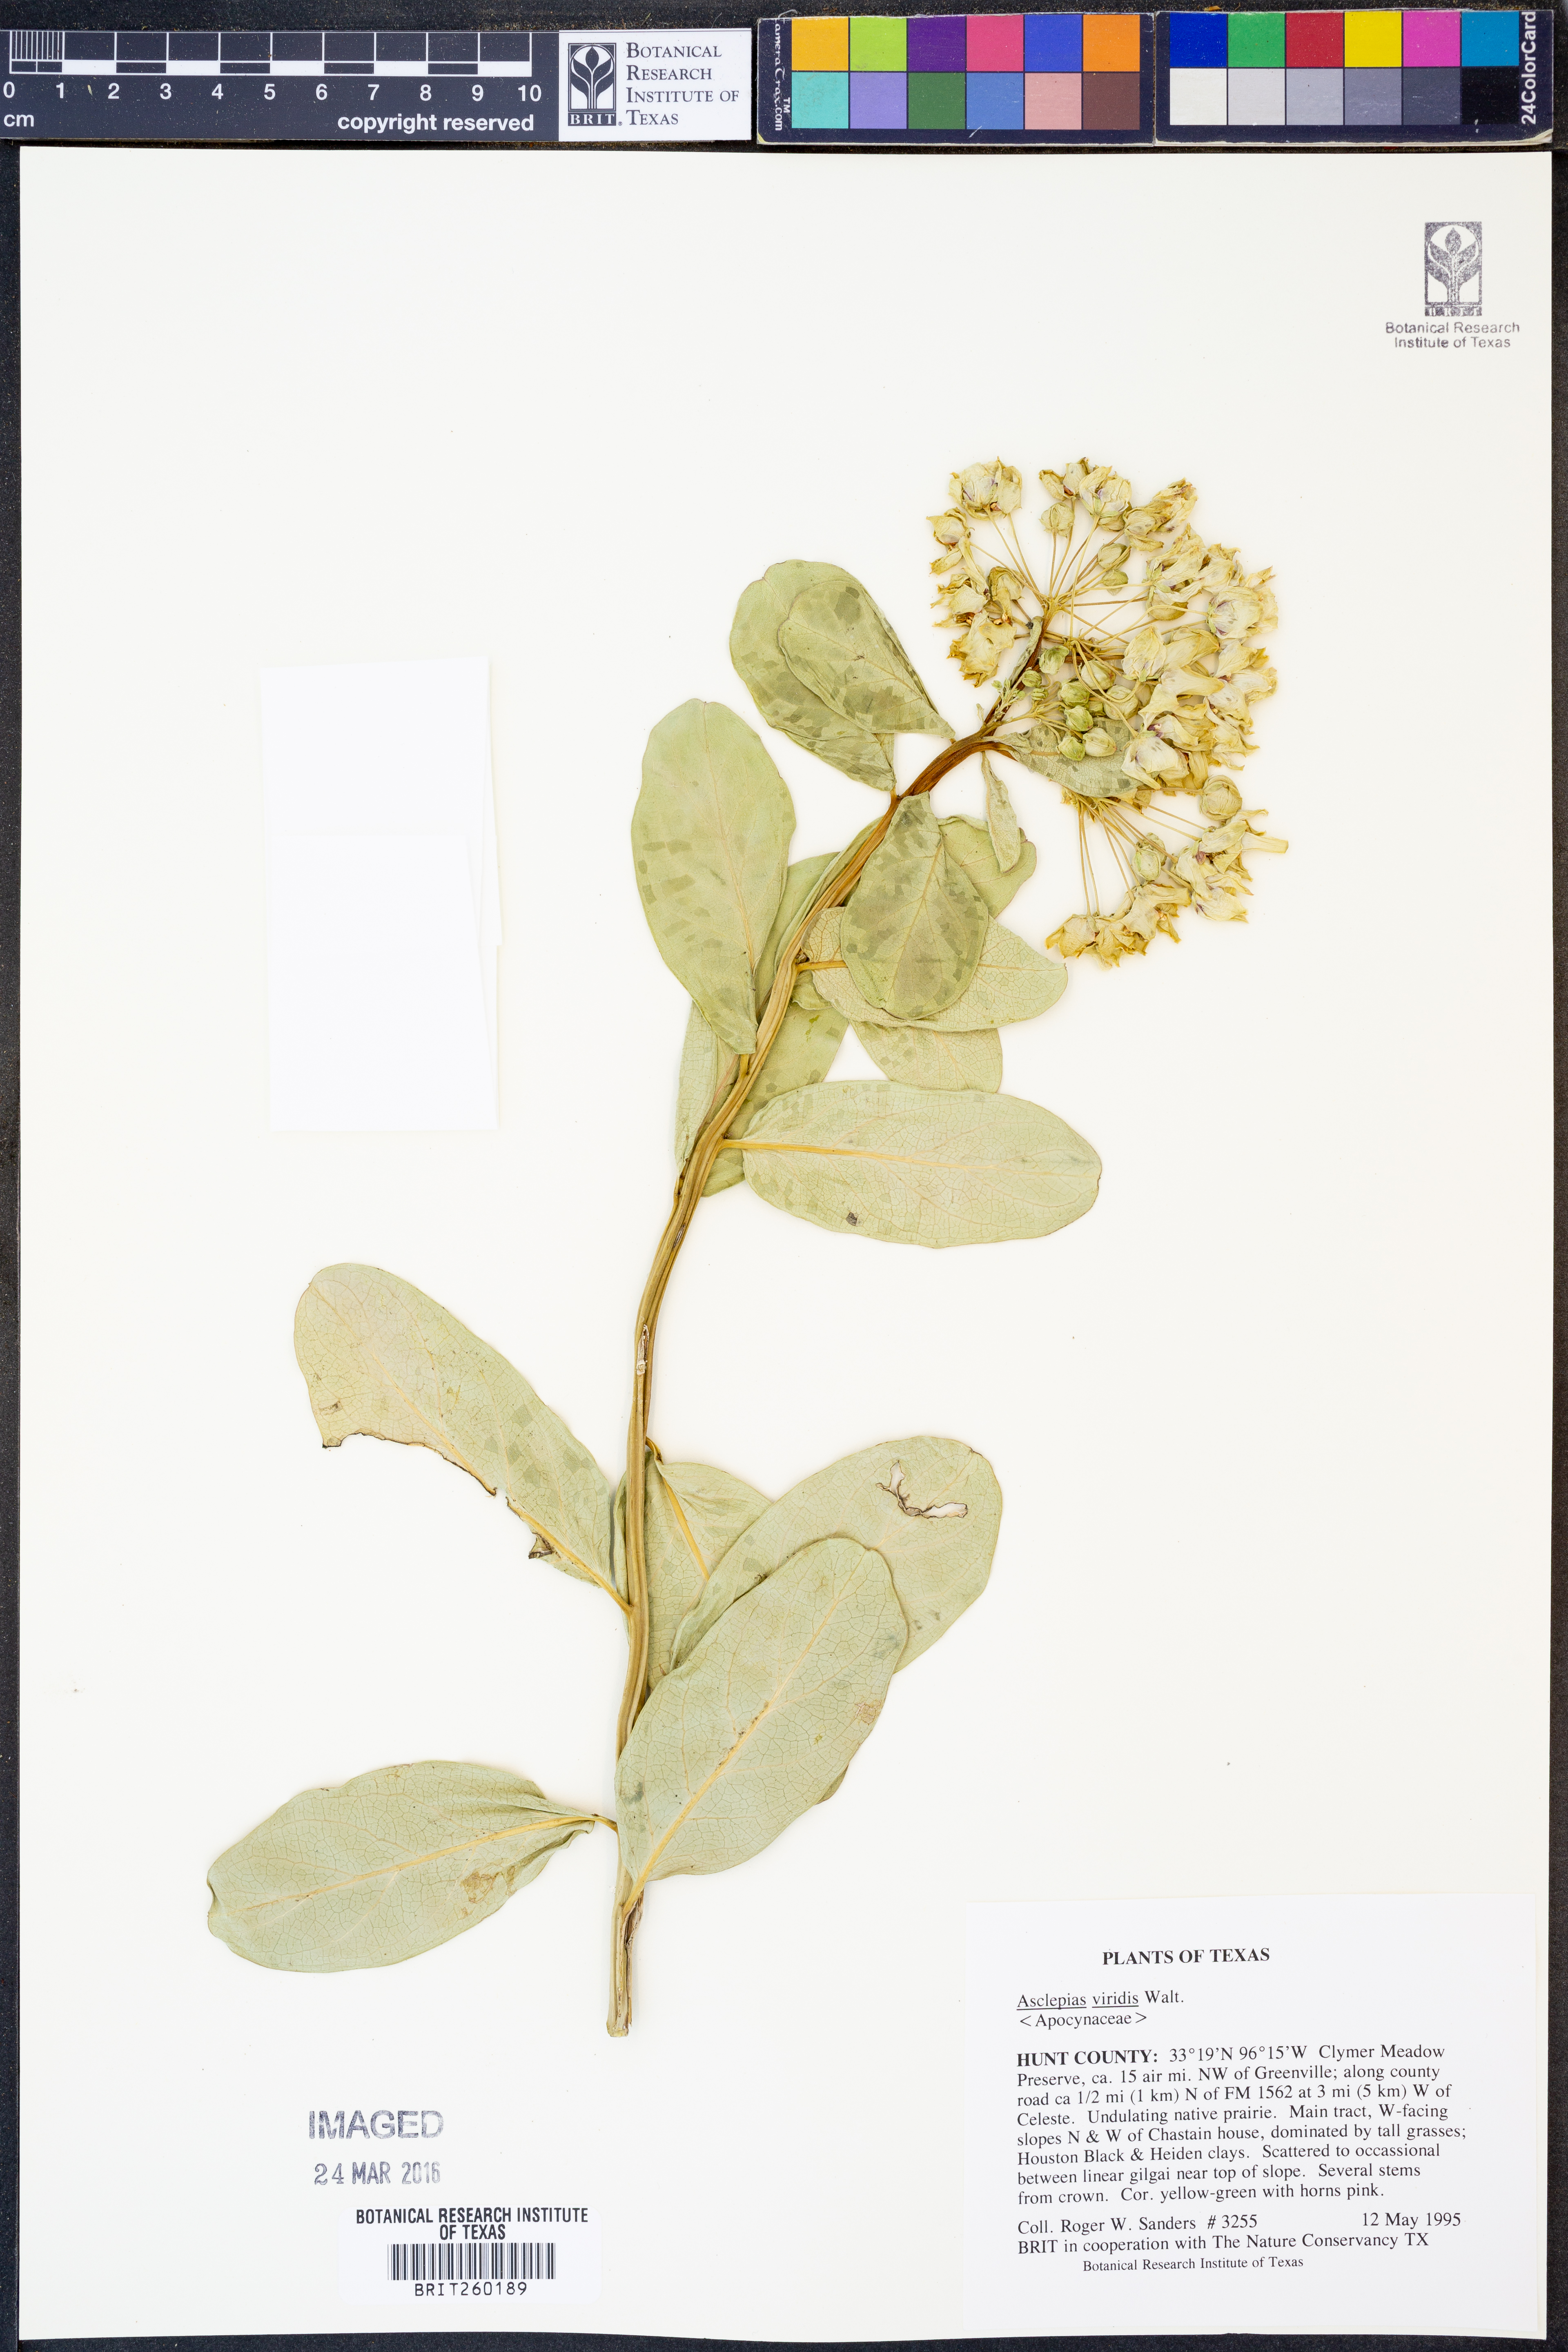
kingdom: Plantae
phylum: Tracheophyta
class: Magnoliopsida
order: Gentianales
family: Apocynaceae
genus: Asclepias
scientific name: Asclepias viridis
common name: Antelope-horns
